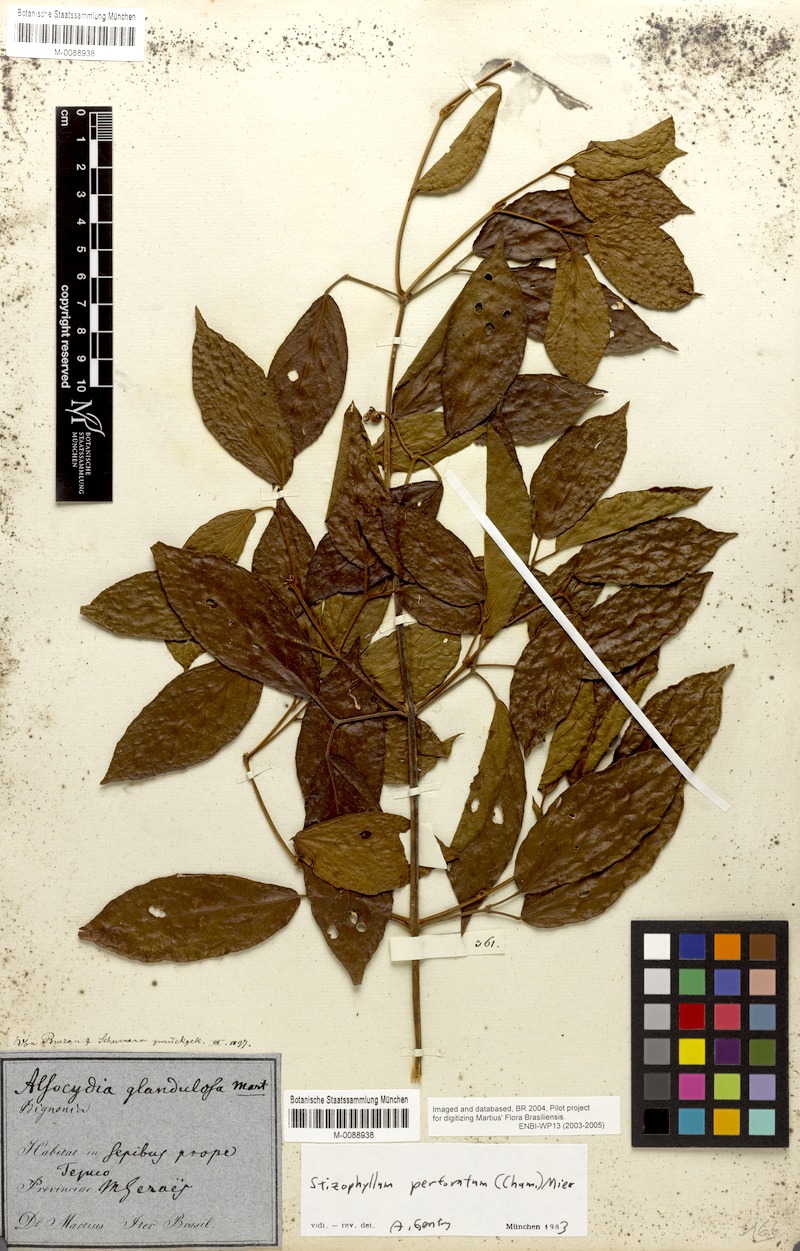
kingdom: Plantae
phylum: Tracheophyta
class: Magnoliopsida
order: Lamiales
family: Bignoniaceae
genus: Stizophyllum
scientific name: Stizophyllum perforatum
